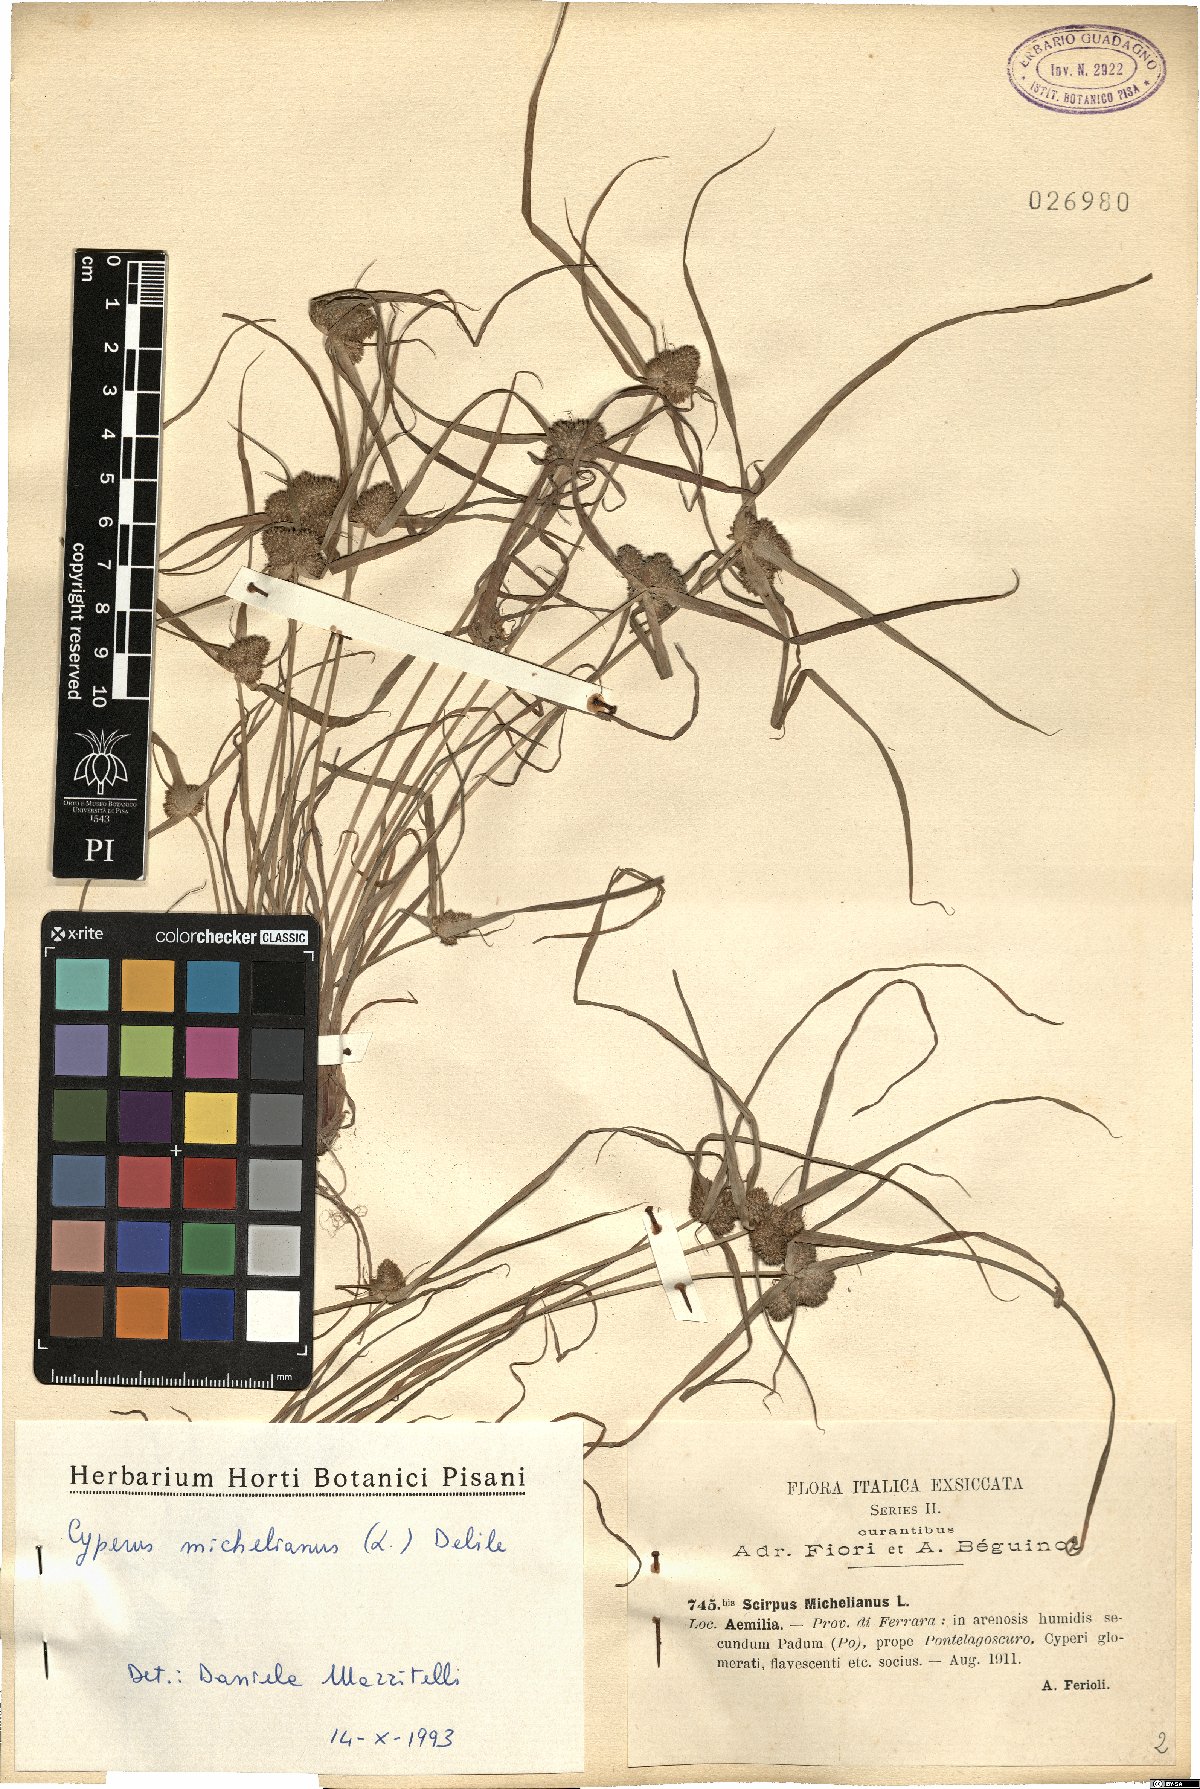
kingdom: Plantae
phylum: Tracheophyta
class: Liliopsida
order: Poales
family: Cyperaceae
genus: Cyperus
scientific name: Cyperus michelianus
